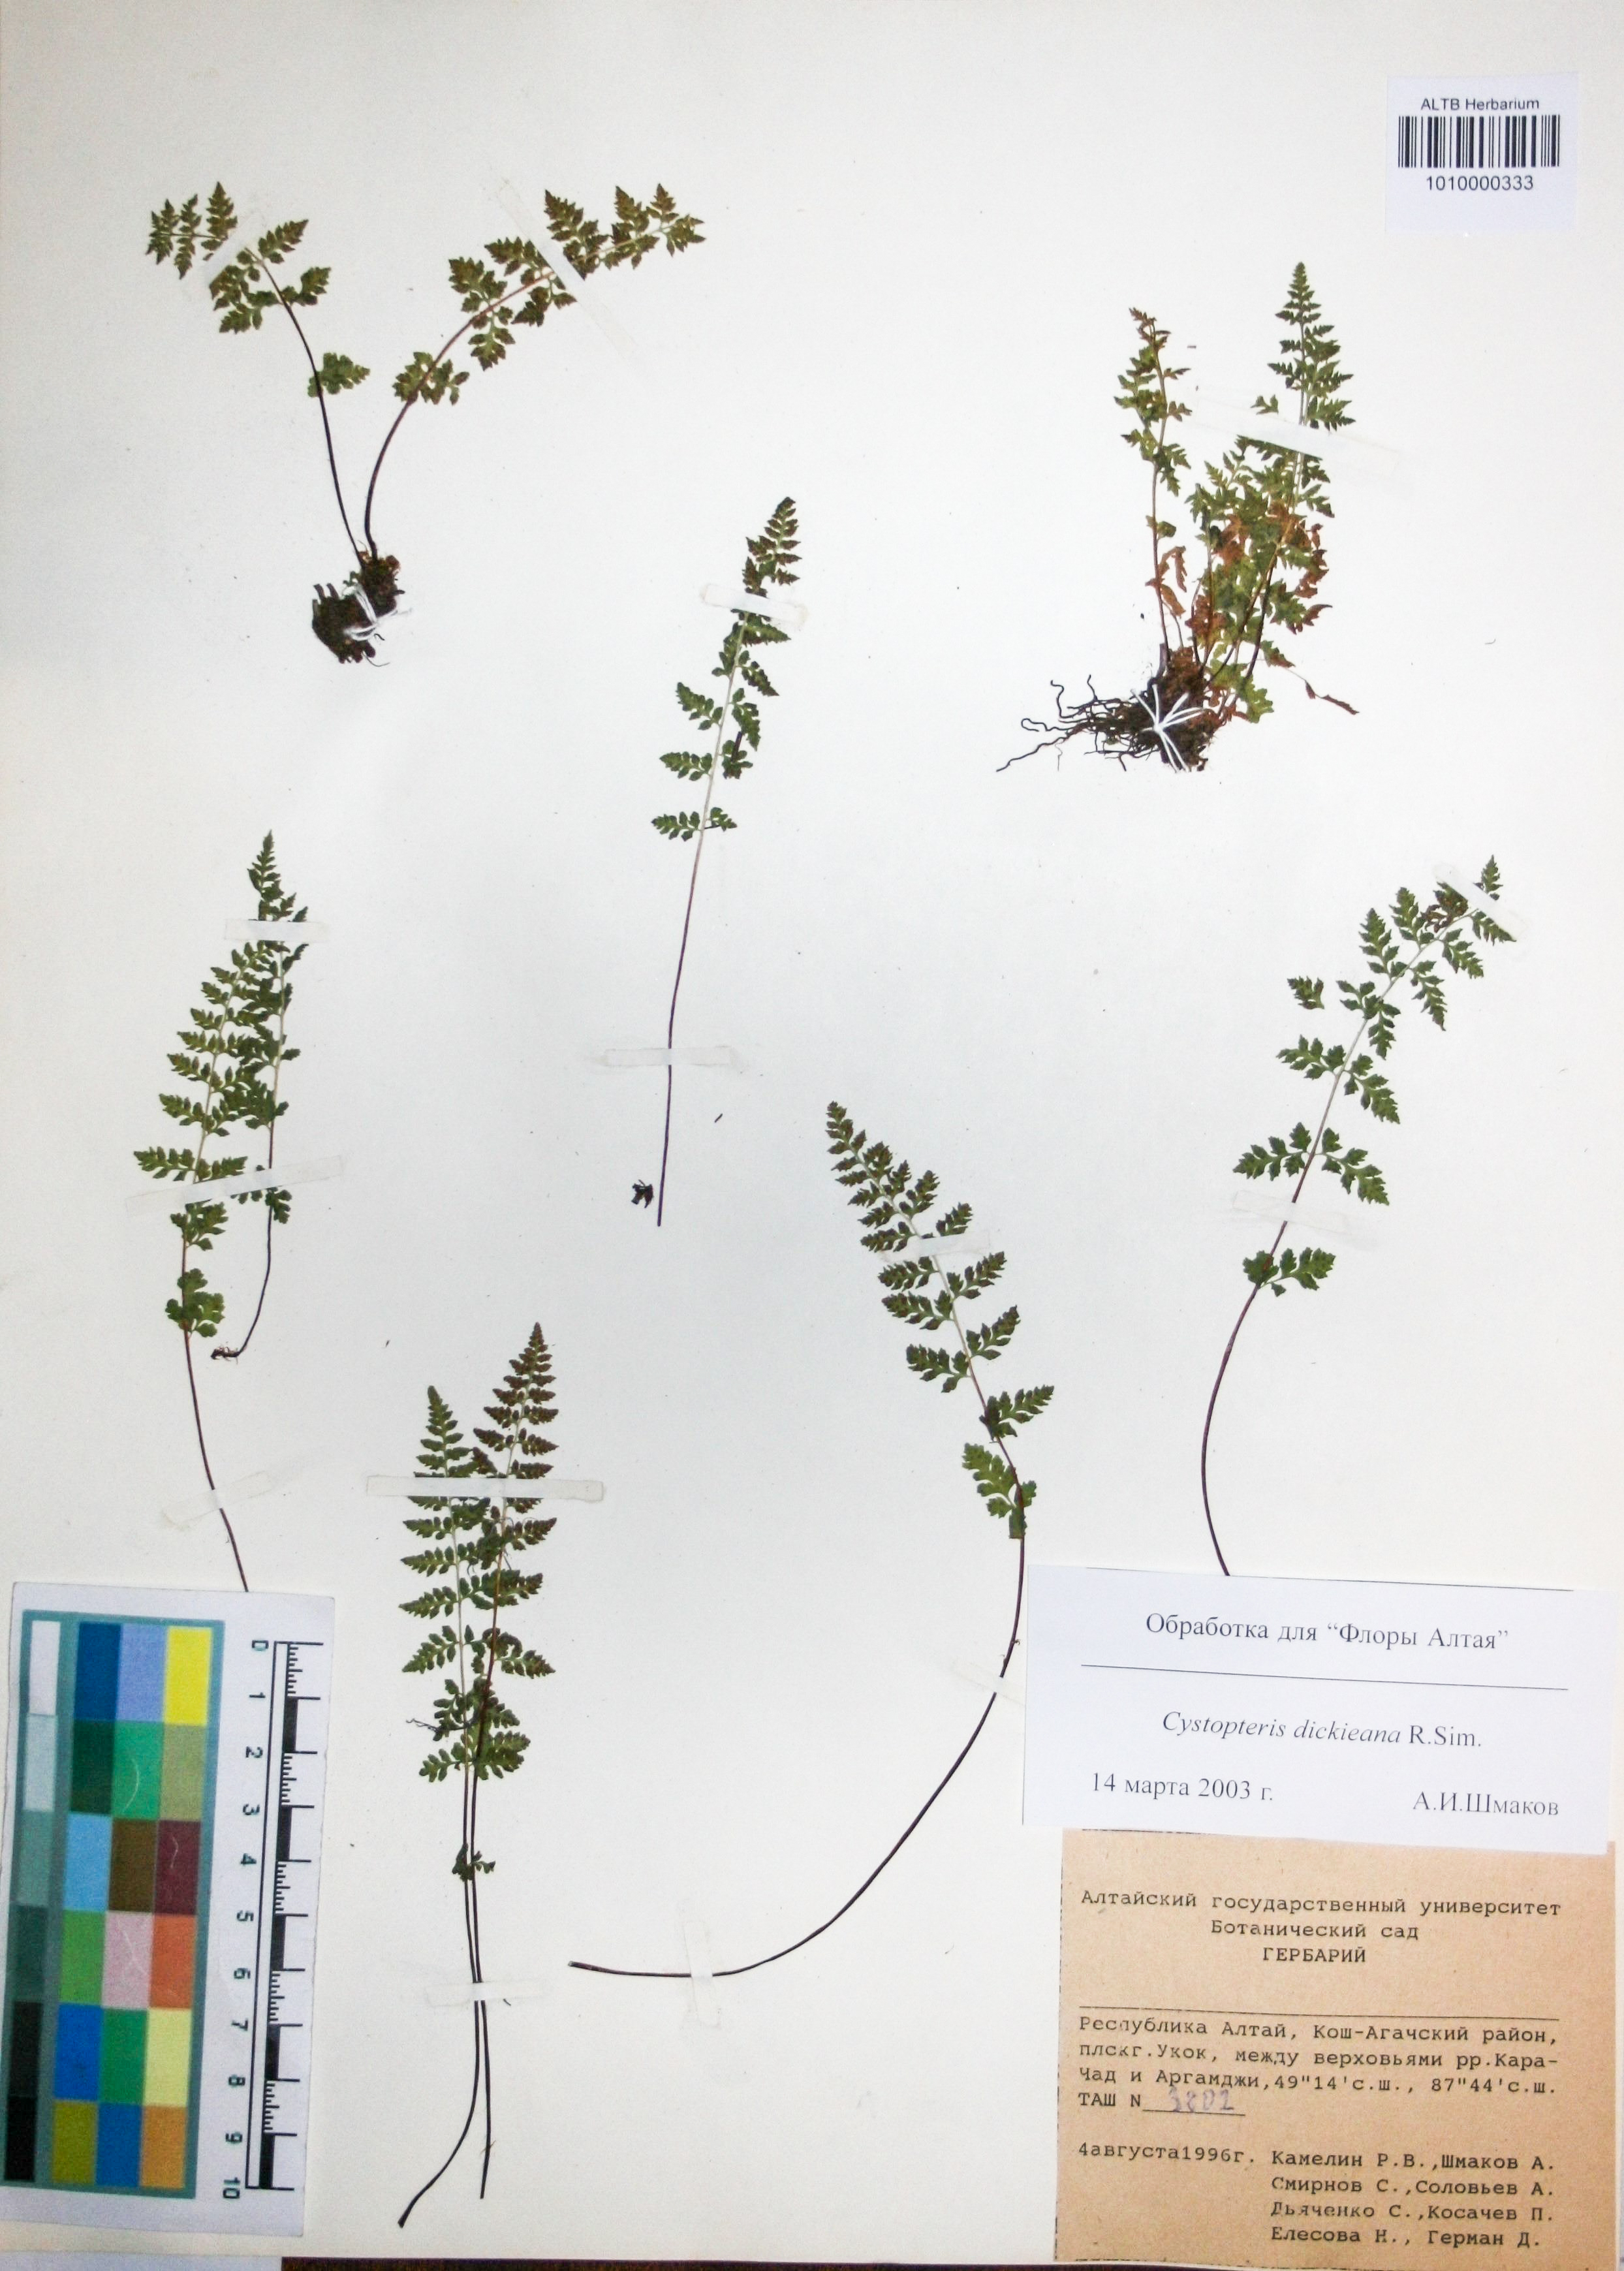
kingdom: Plantae
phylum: Tracheophyta
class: Polypodiopsida
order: Polypodiales
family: Cystopteridaceae
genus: Cystopteris
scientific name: Cystopteris dickieana
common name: Dickie's bladder-fern
